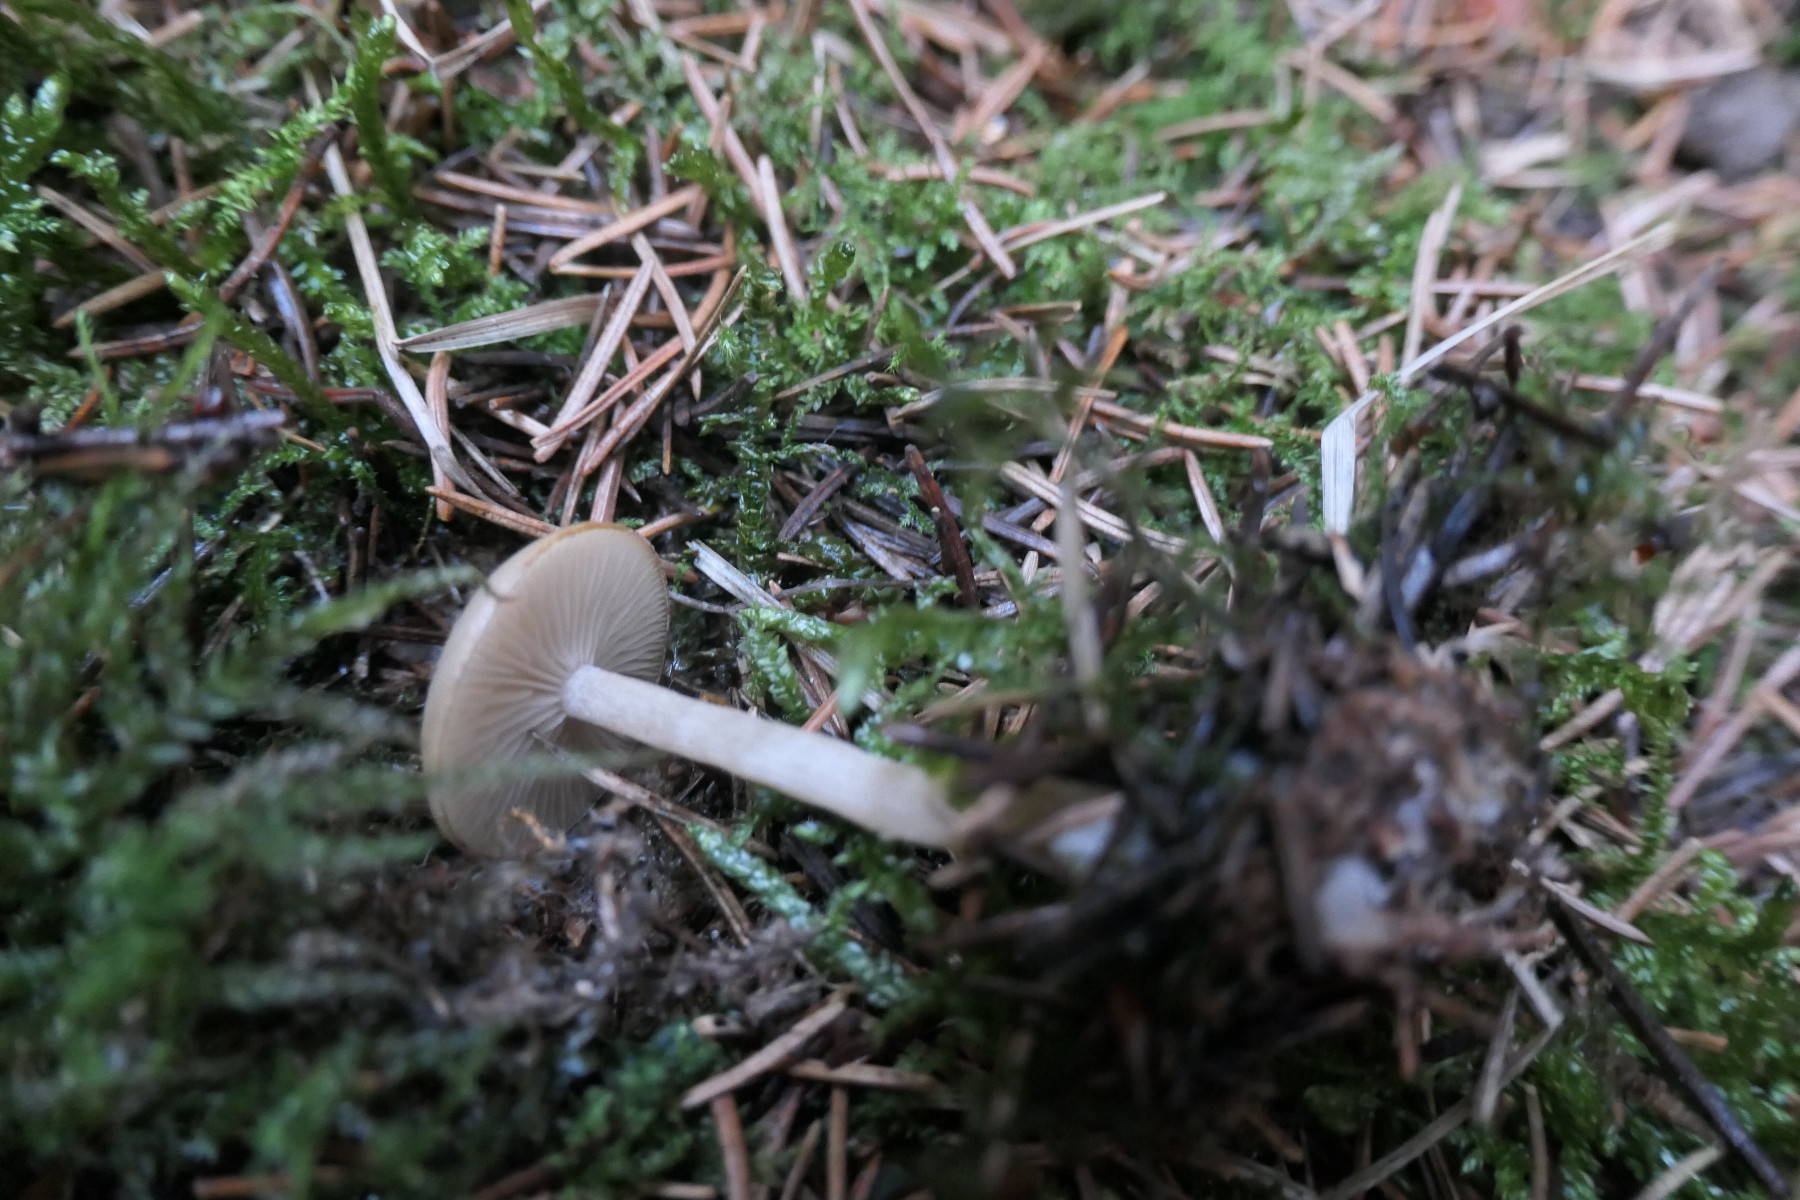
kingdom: Fungi
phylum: Basidiomycota
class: Agaricomycetes
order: Agaricales
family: Tricholomataceae
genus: Clitocybe
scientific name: Clitocybe fragrans
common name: vellugtende tragthat
